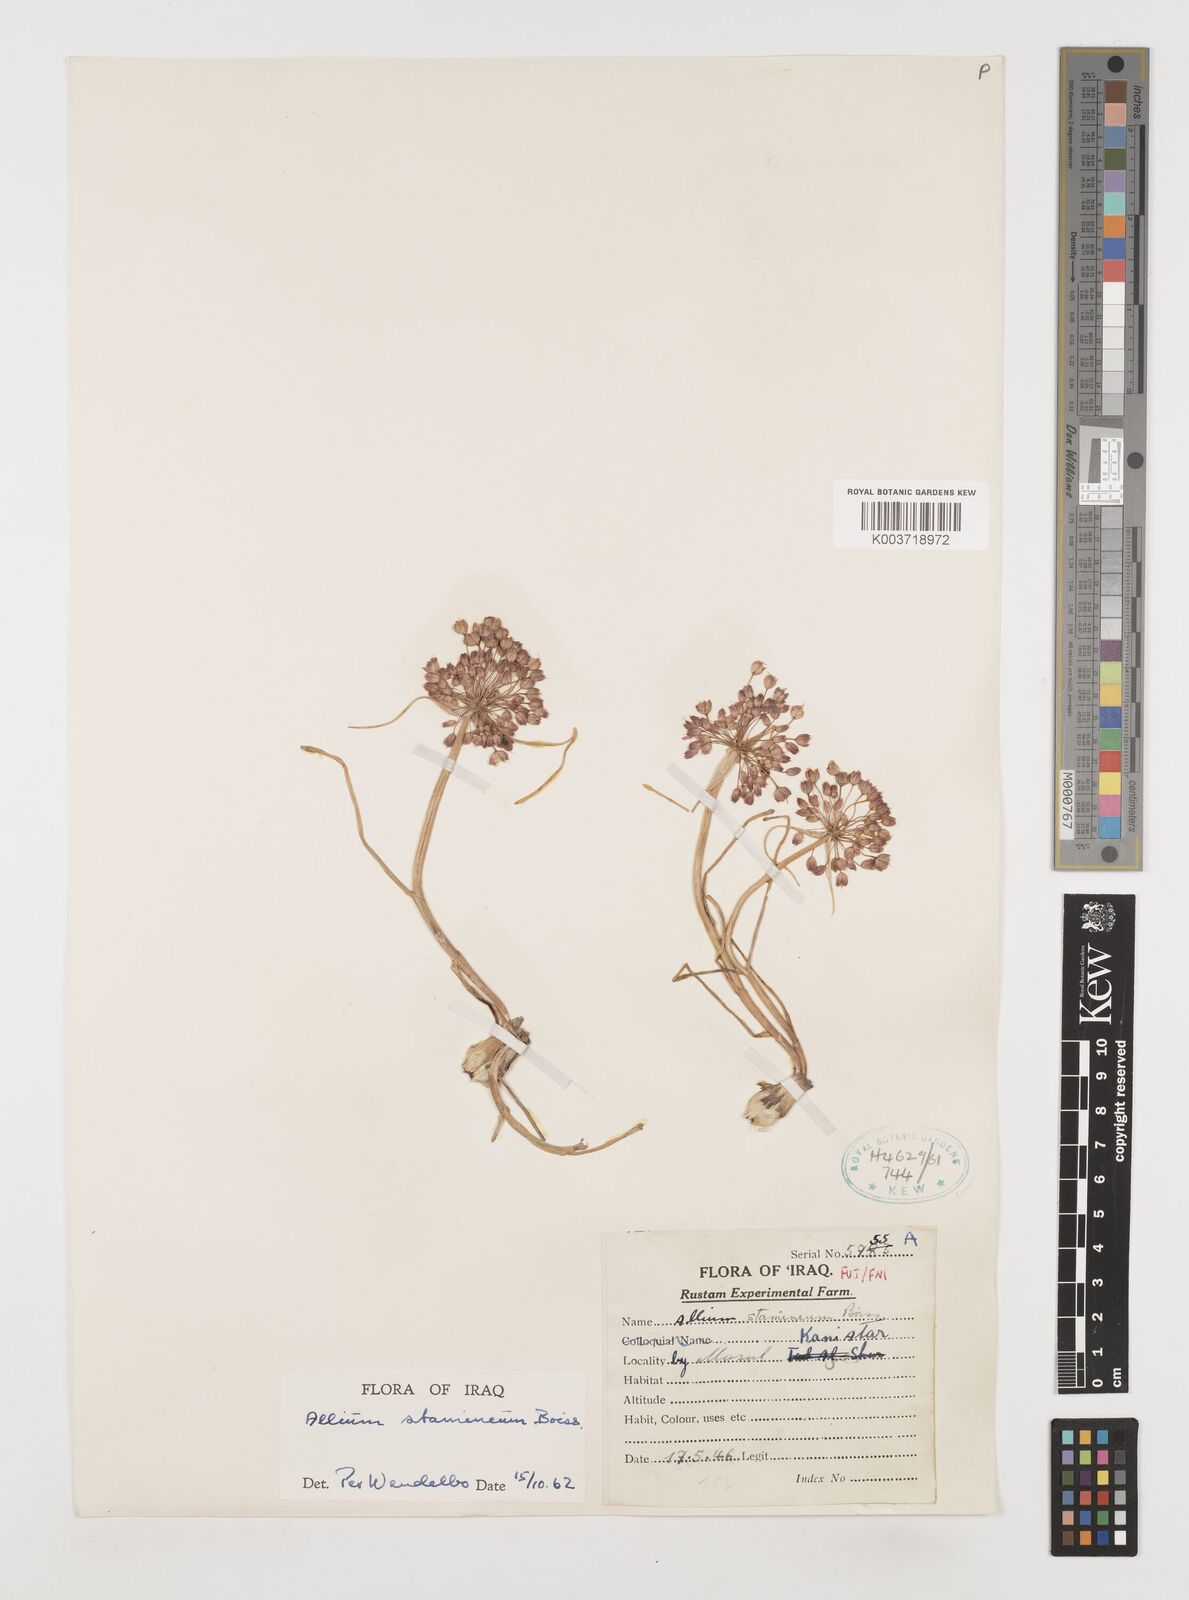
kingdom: Plantae
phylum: Tracheophyta
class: Liliopsida
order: Asparagales
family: Amaryllidaceae
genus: Allium
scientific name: Allium stamineum
